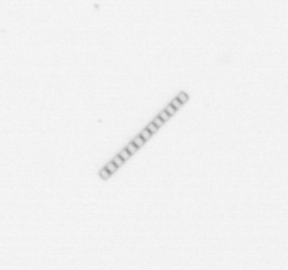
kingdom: Chromista
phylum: Ochrophyta
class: Bacillariophyceae
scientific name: Bacillariophyceae
